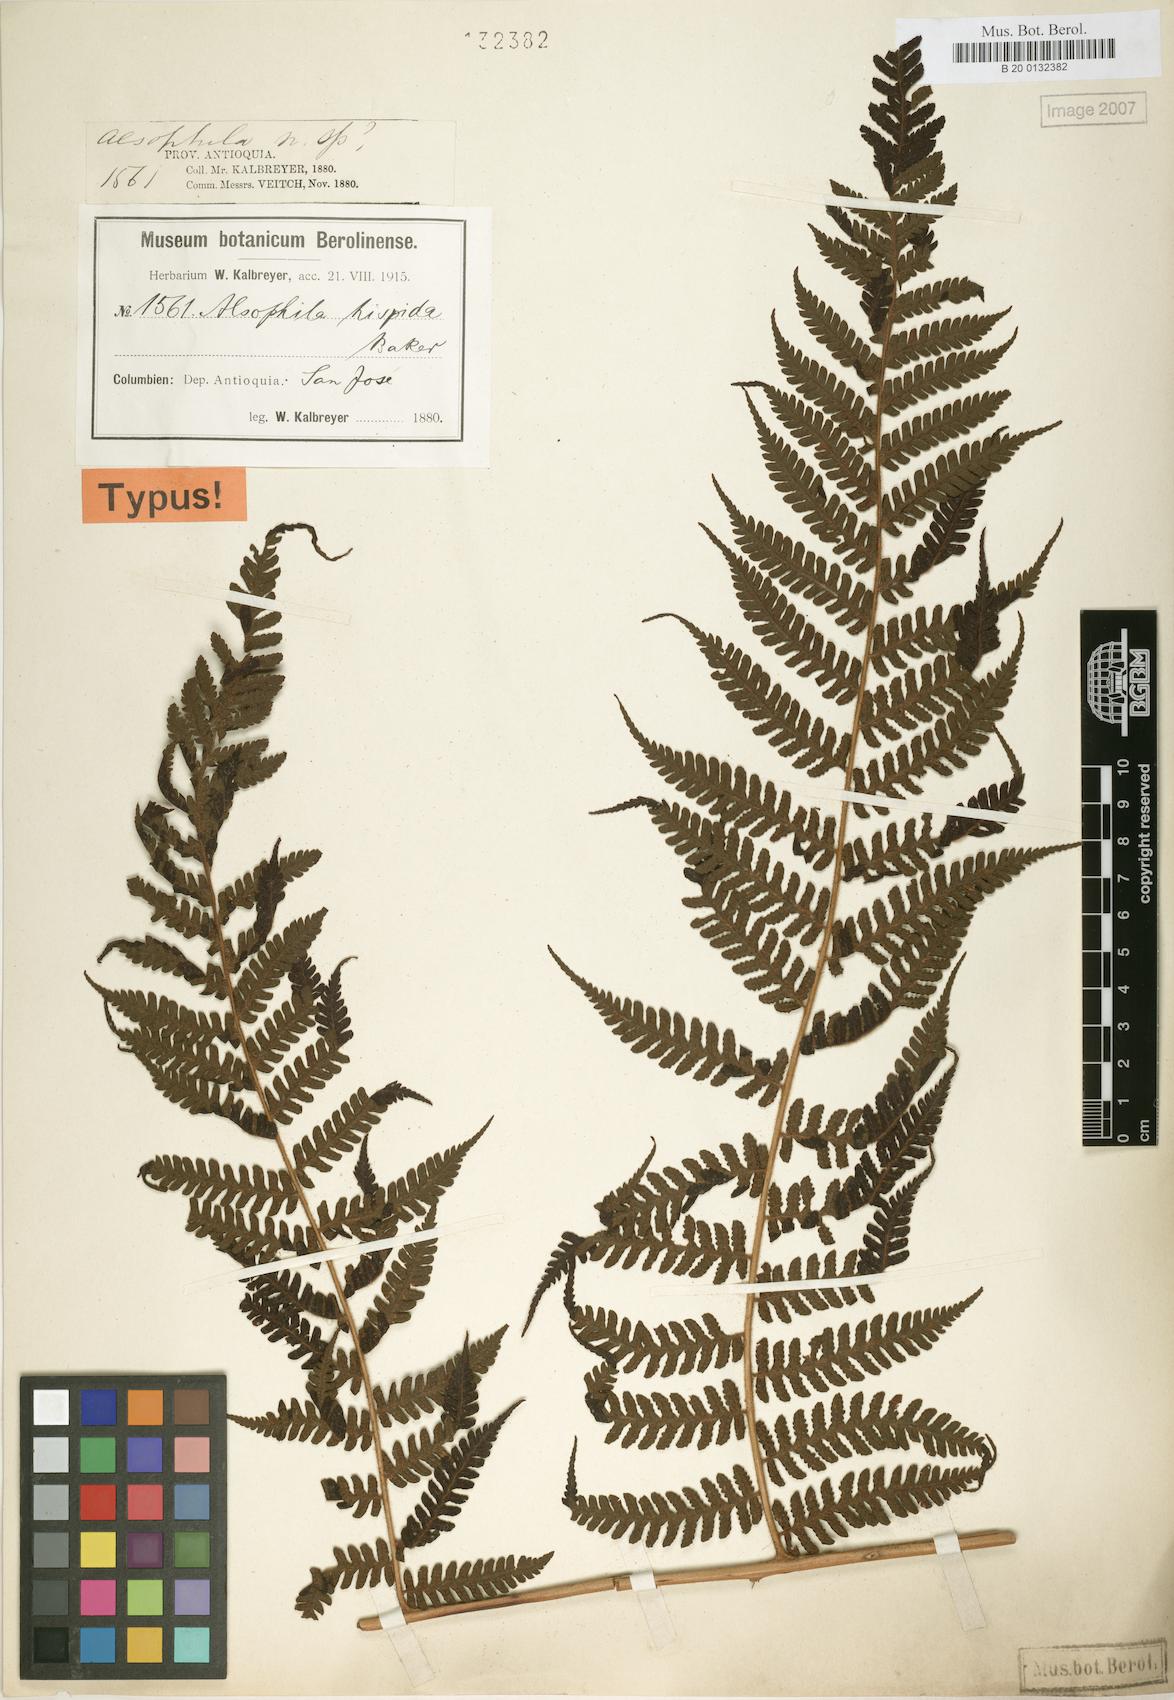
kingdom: Plantae
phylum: Tracheophyta
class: Polypodiopsida
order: Cyatheales
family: Cyatheaceae
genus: Alsophila
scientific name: Alsophila hispida
